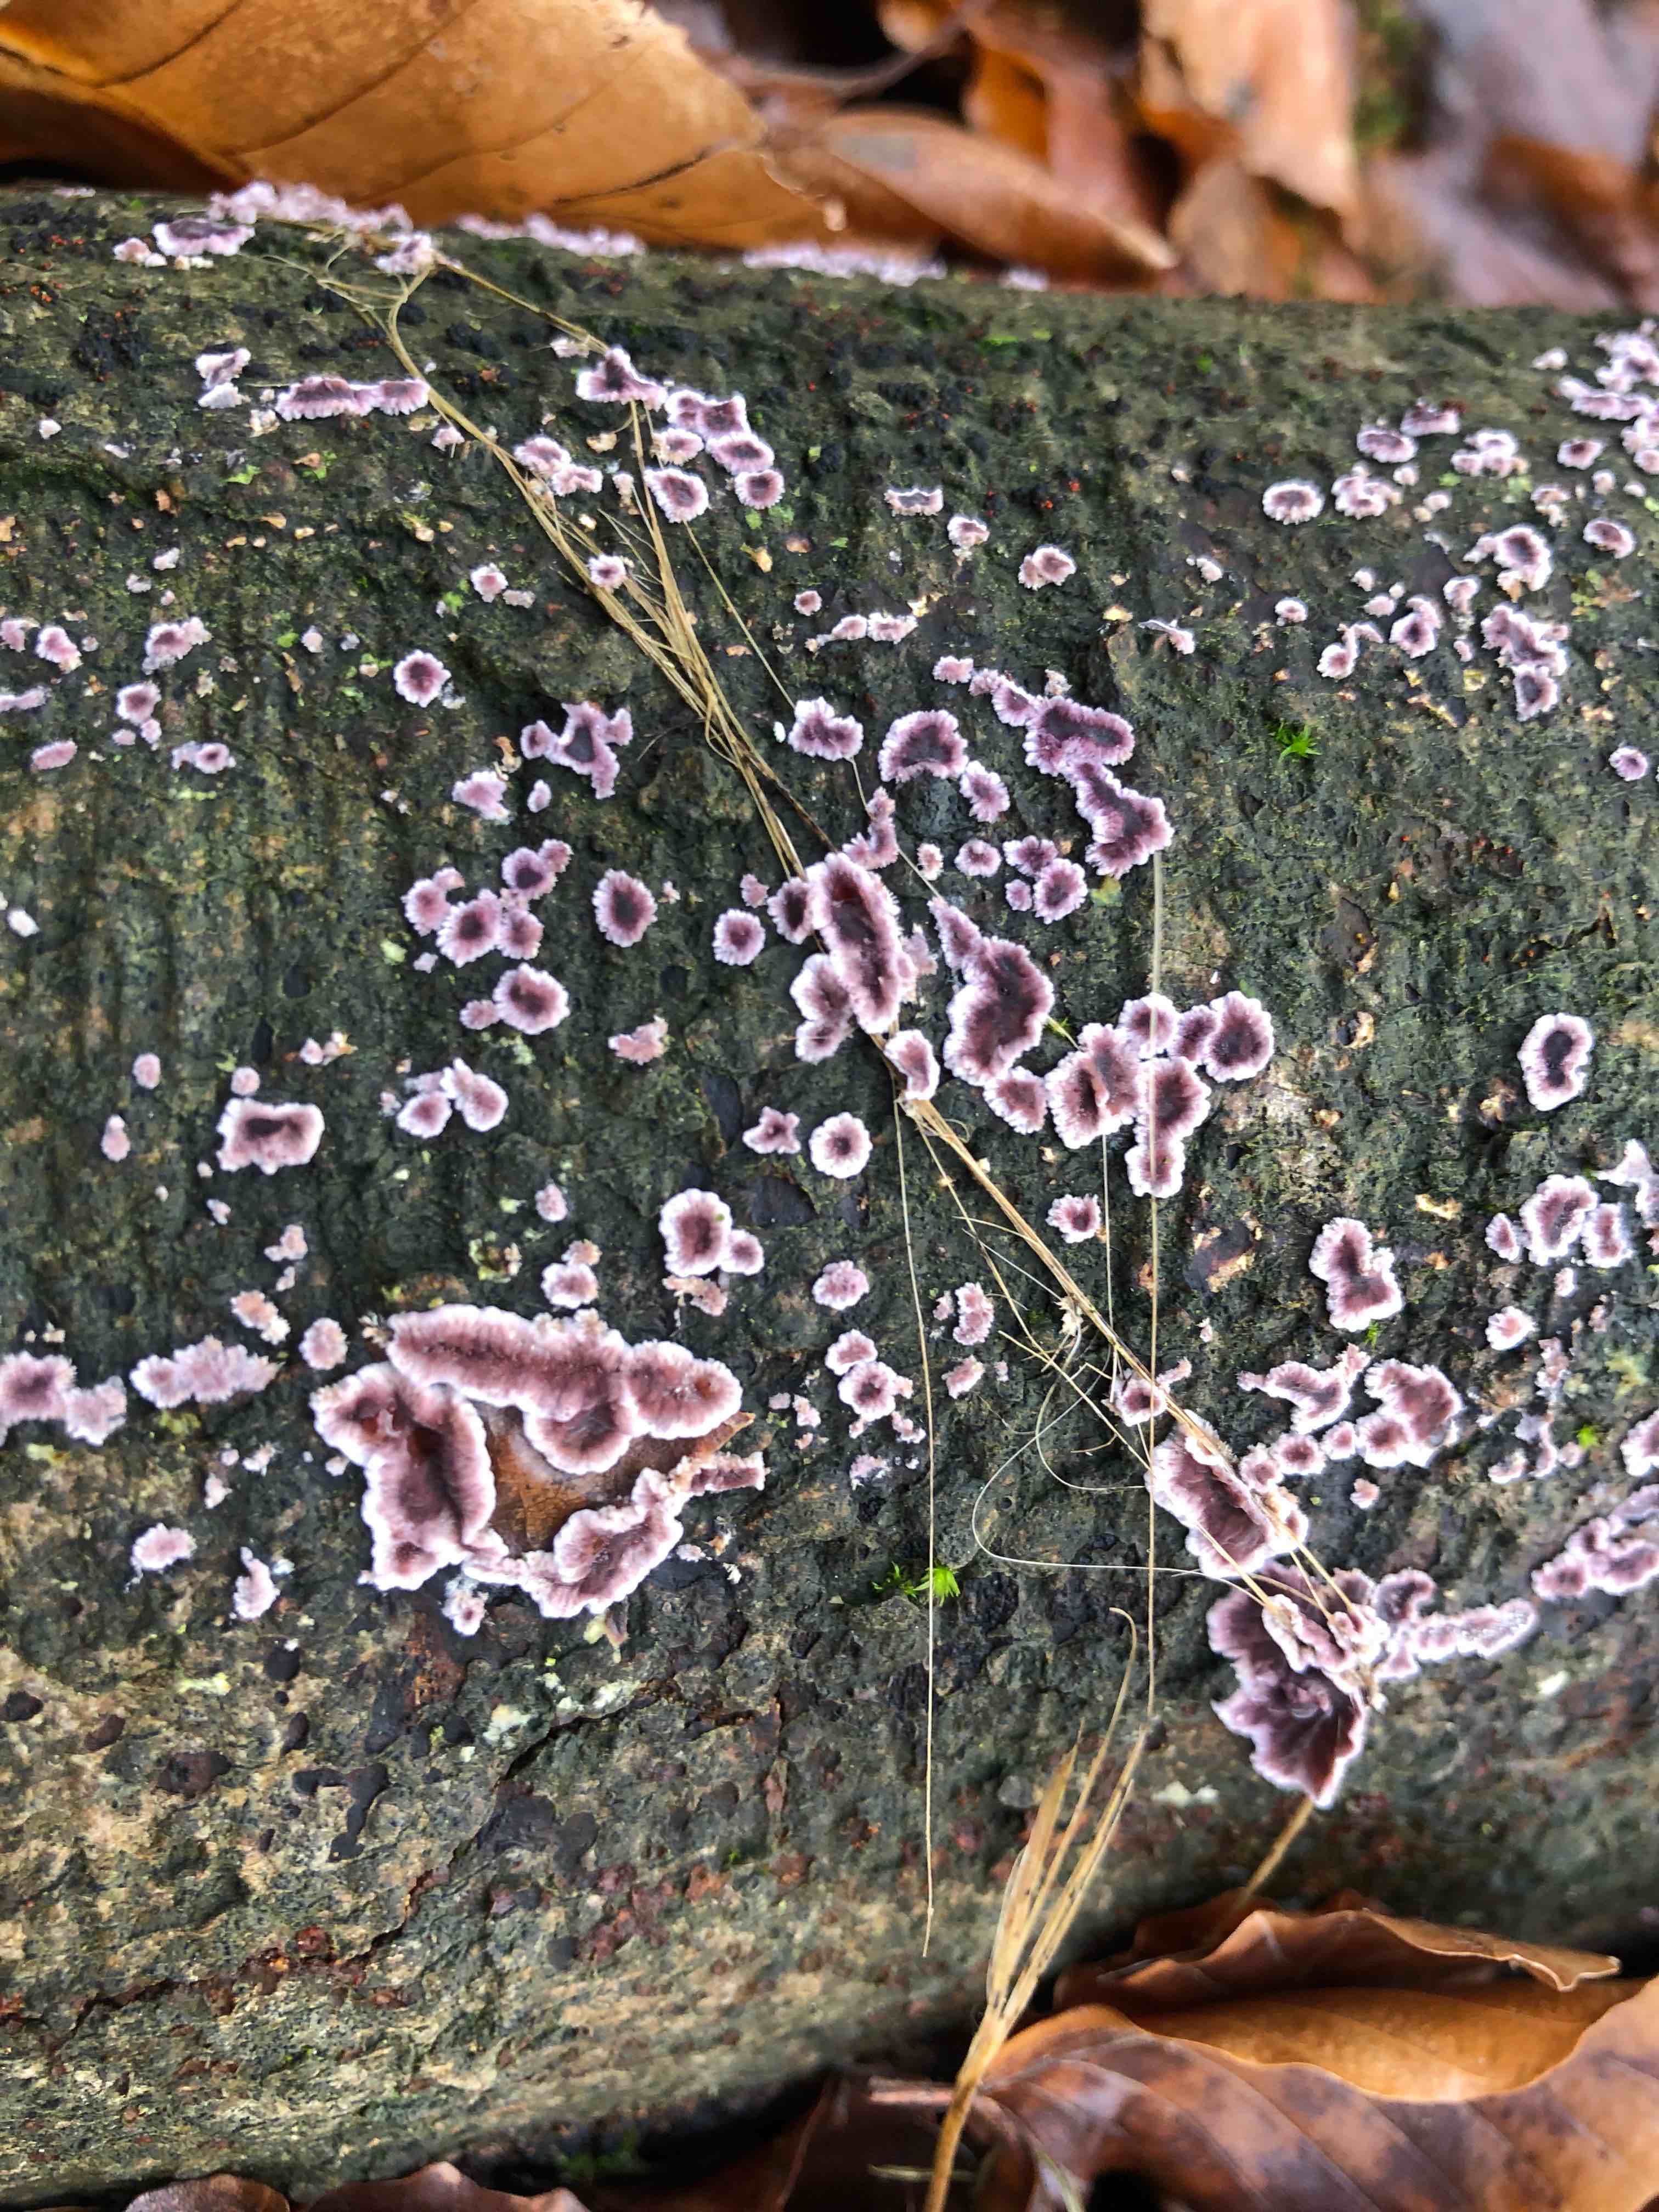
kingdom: Fungi
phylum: Basidiomycota
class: Agaricomycetes
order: Agaricales
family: Cyphellaceae
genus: Chondrostereum
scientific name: Chondrostereum purpureum
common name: purpurlædersvamp
